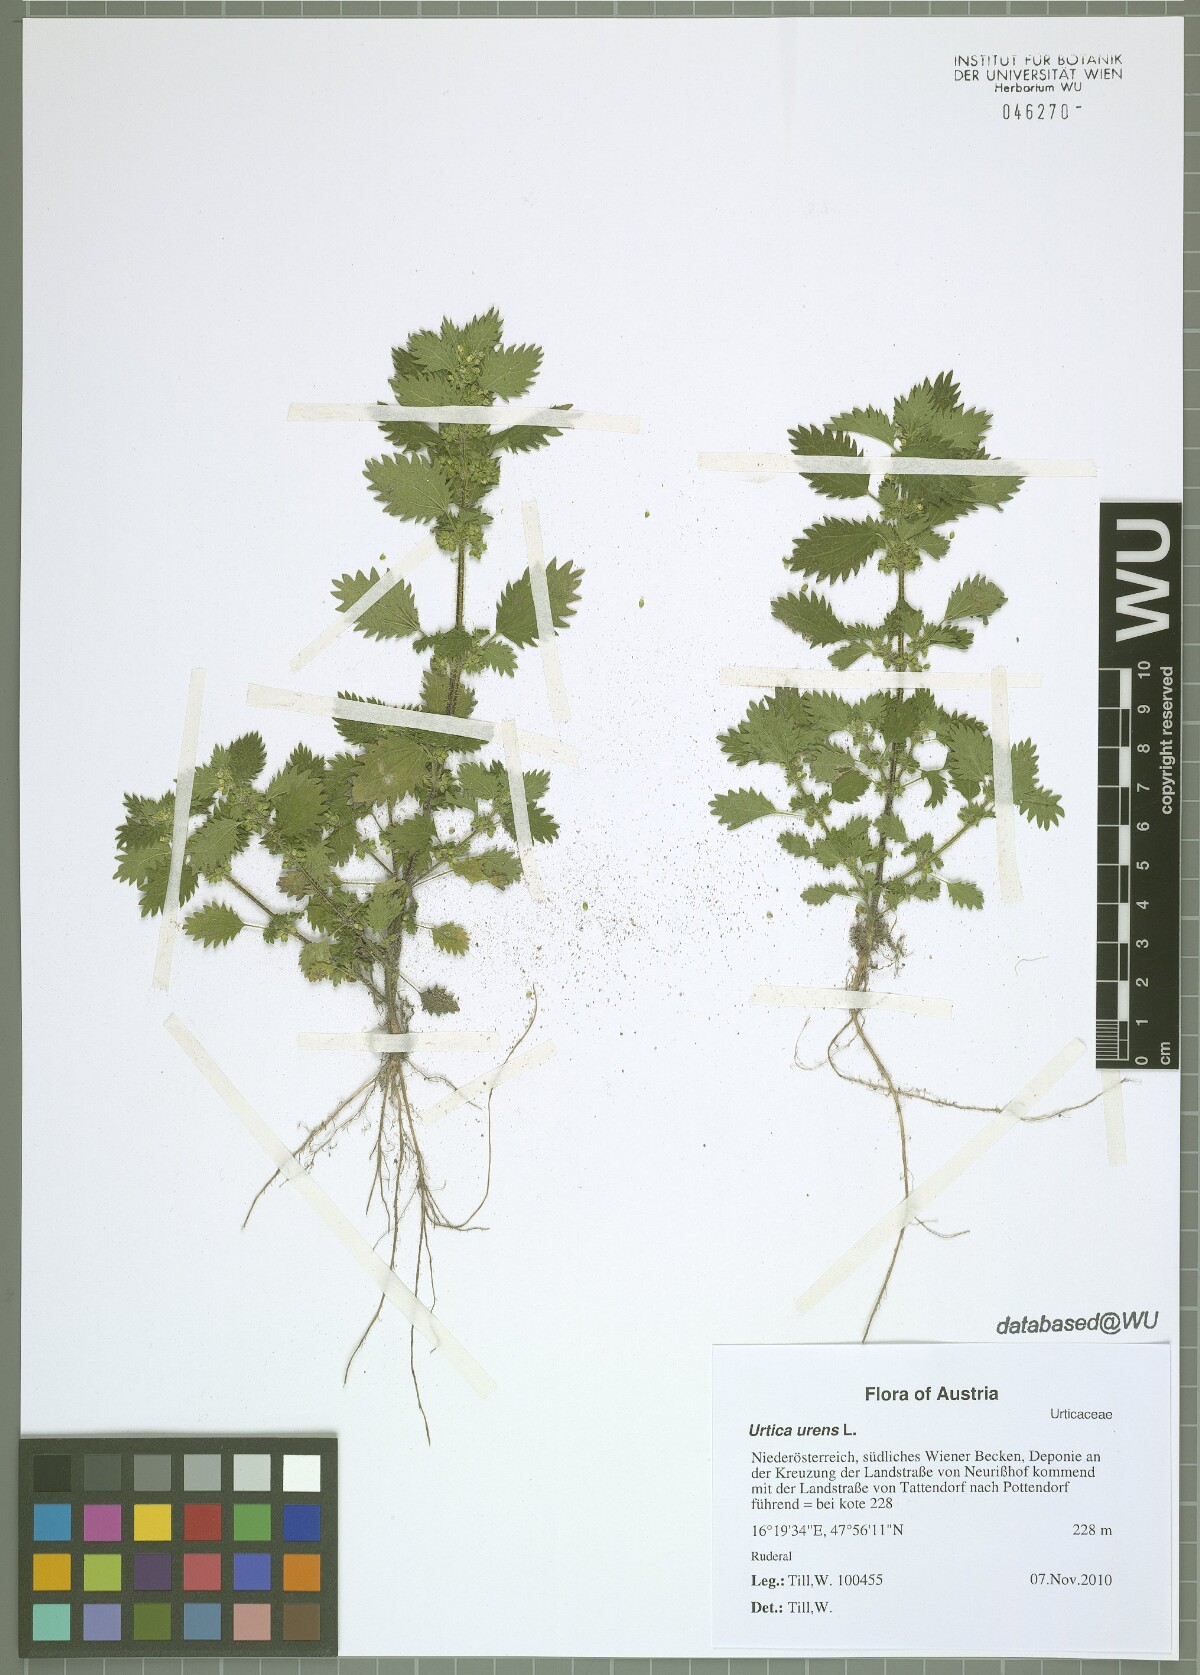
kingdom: Plantae
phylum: Tracheophyta
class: Magnoliopsida
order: Rosales
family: Urticaceae
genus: Urtica
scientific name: Urtica urens
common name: Dwarf nettle
